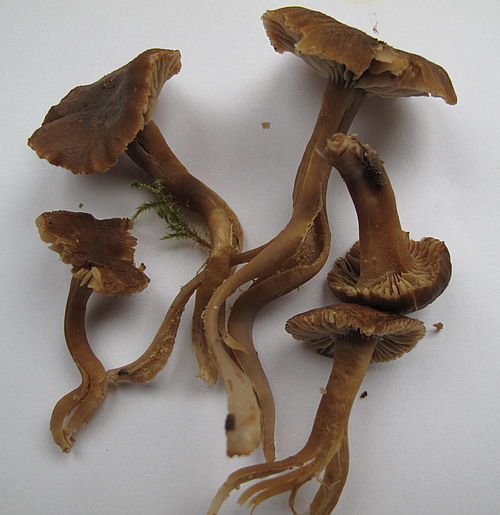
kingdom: Fungi
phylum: Basidiomycota
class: Agaricomycetes
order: Agaricales
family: Clavariaceae
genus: Camarophyllopsis
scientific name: Camarophyllopsis schulzeri
